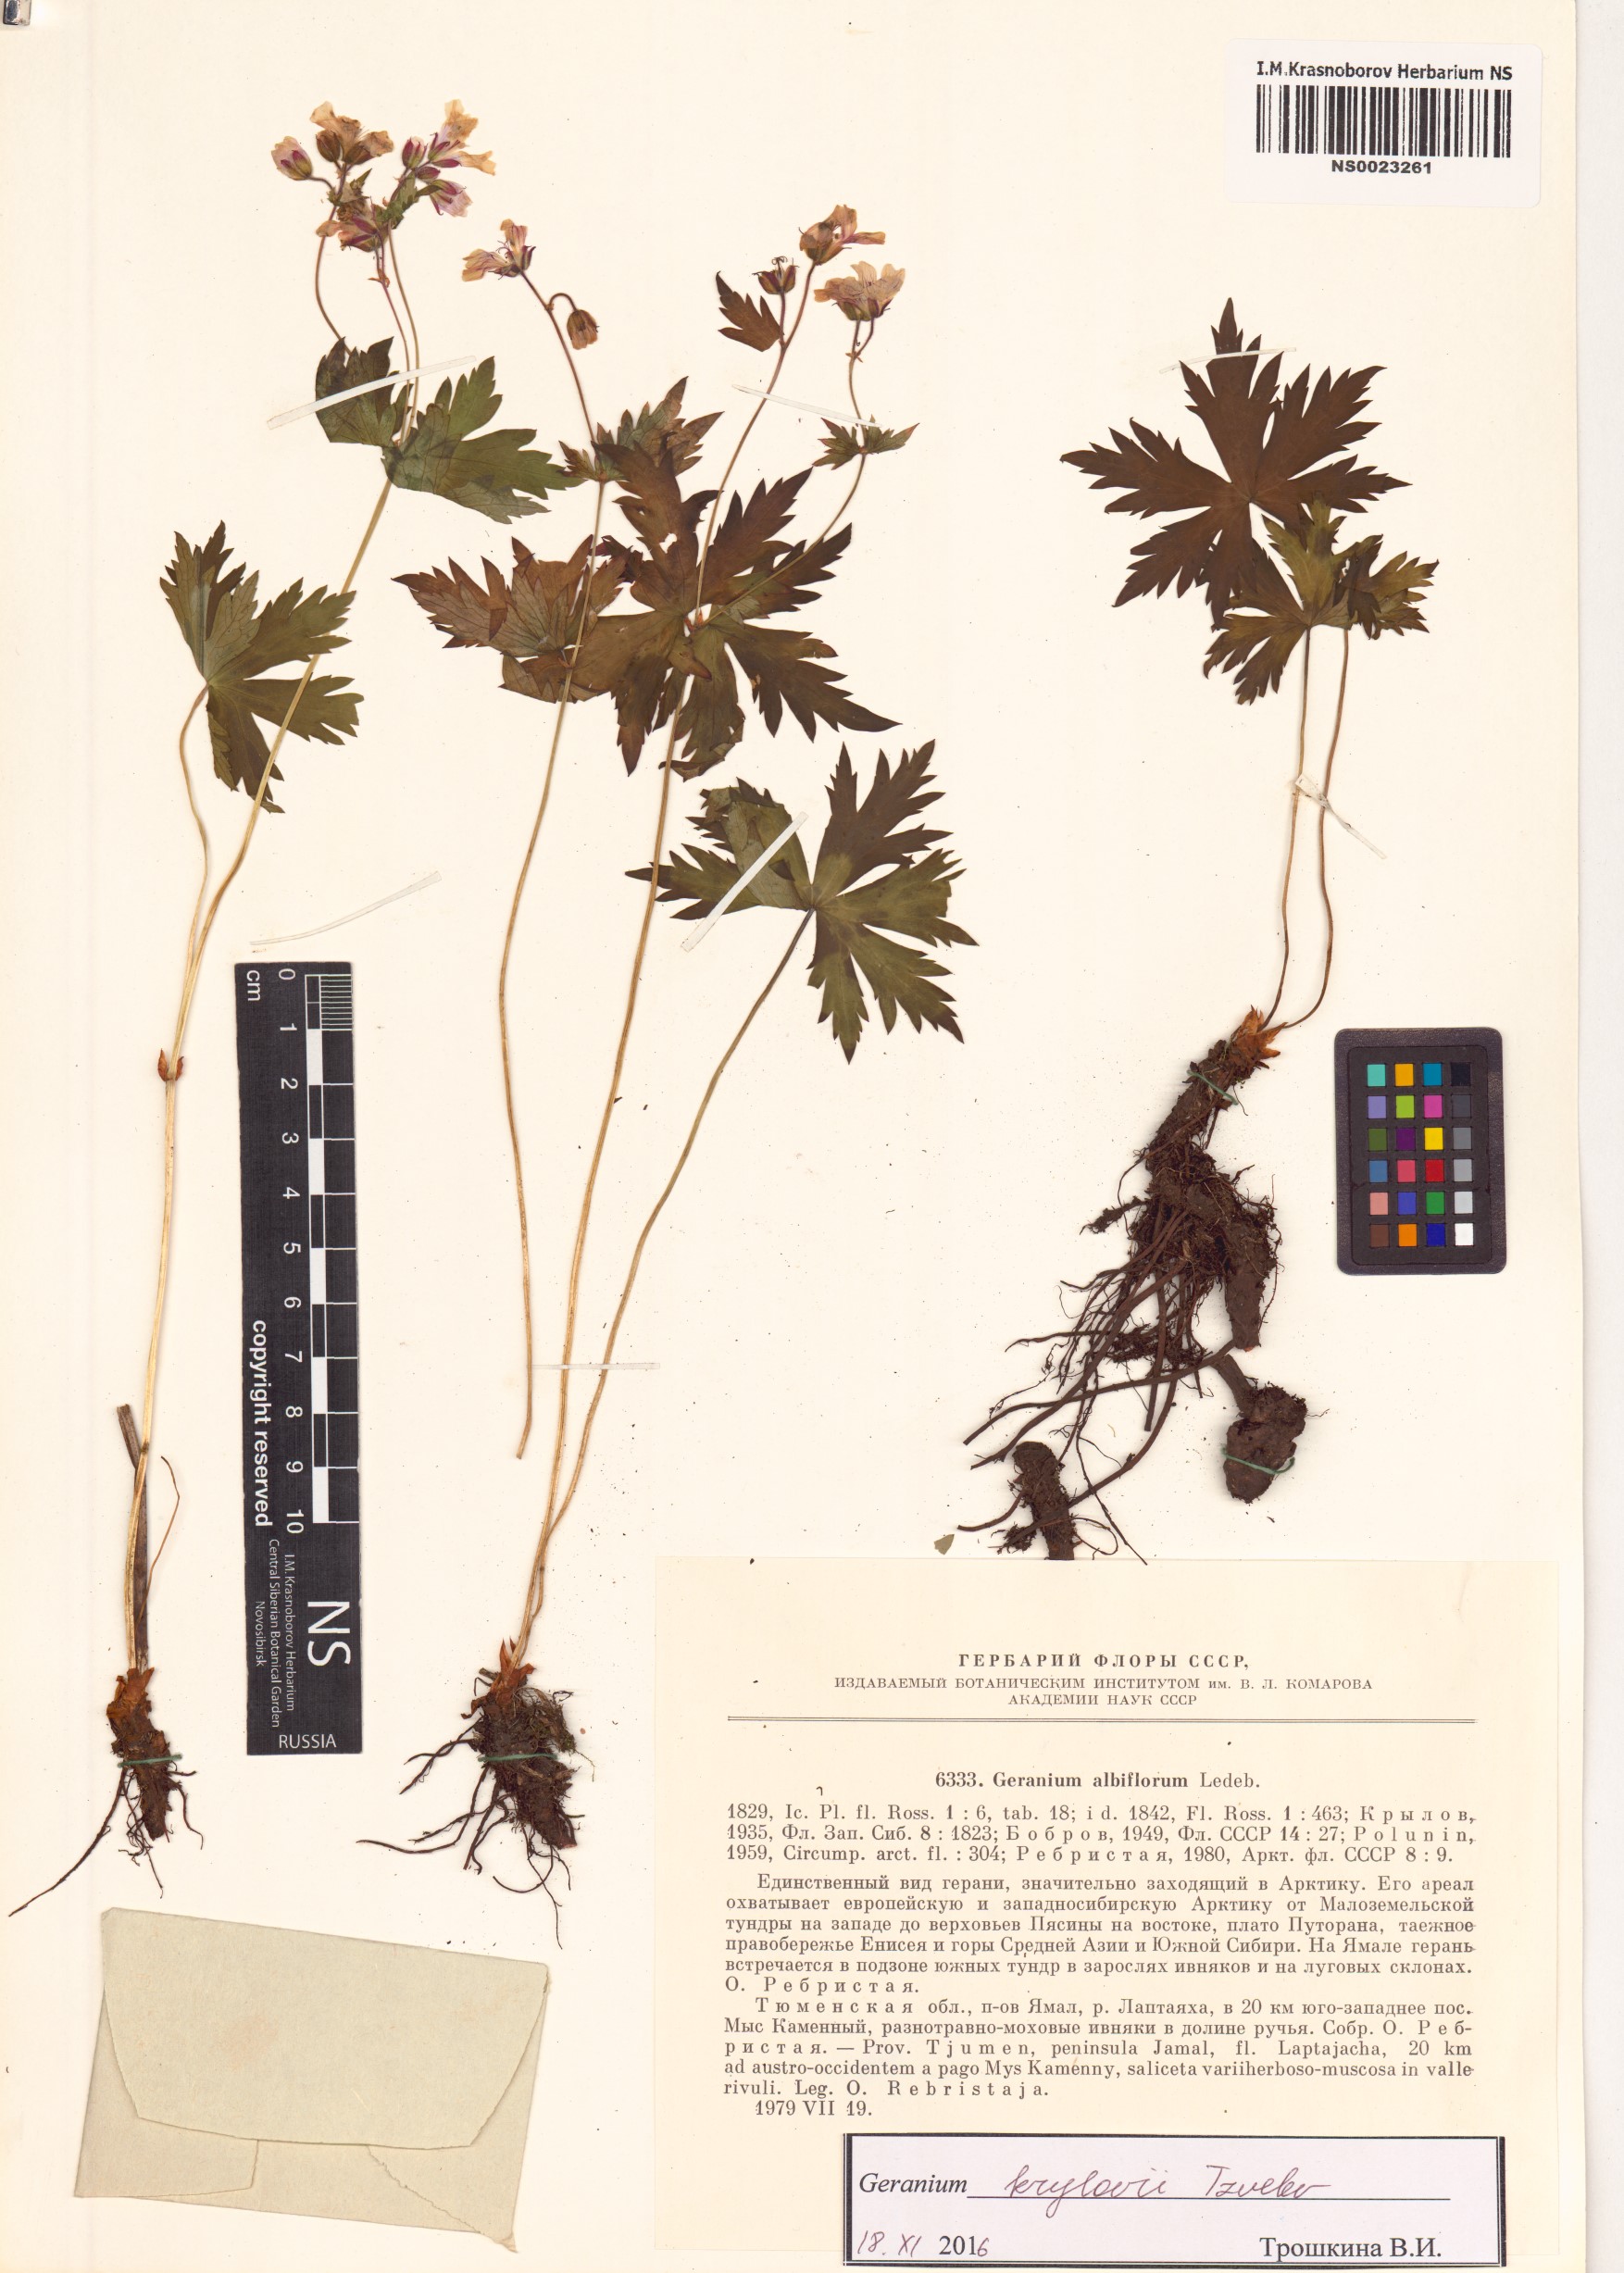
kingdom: Plantae
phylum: Tracheophyta
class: Magnoliopsida
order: Geraniales
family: Geraniaceae
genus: Geranium
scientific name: Geranium sylvaticum
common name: Wood crane's-bill
